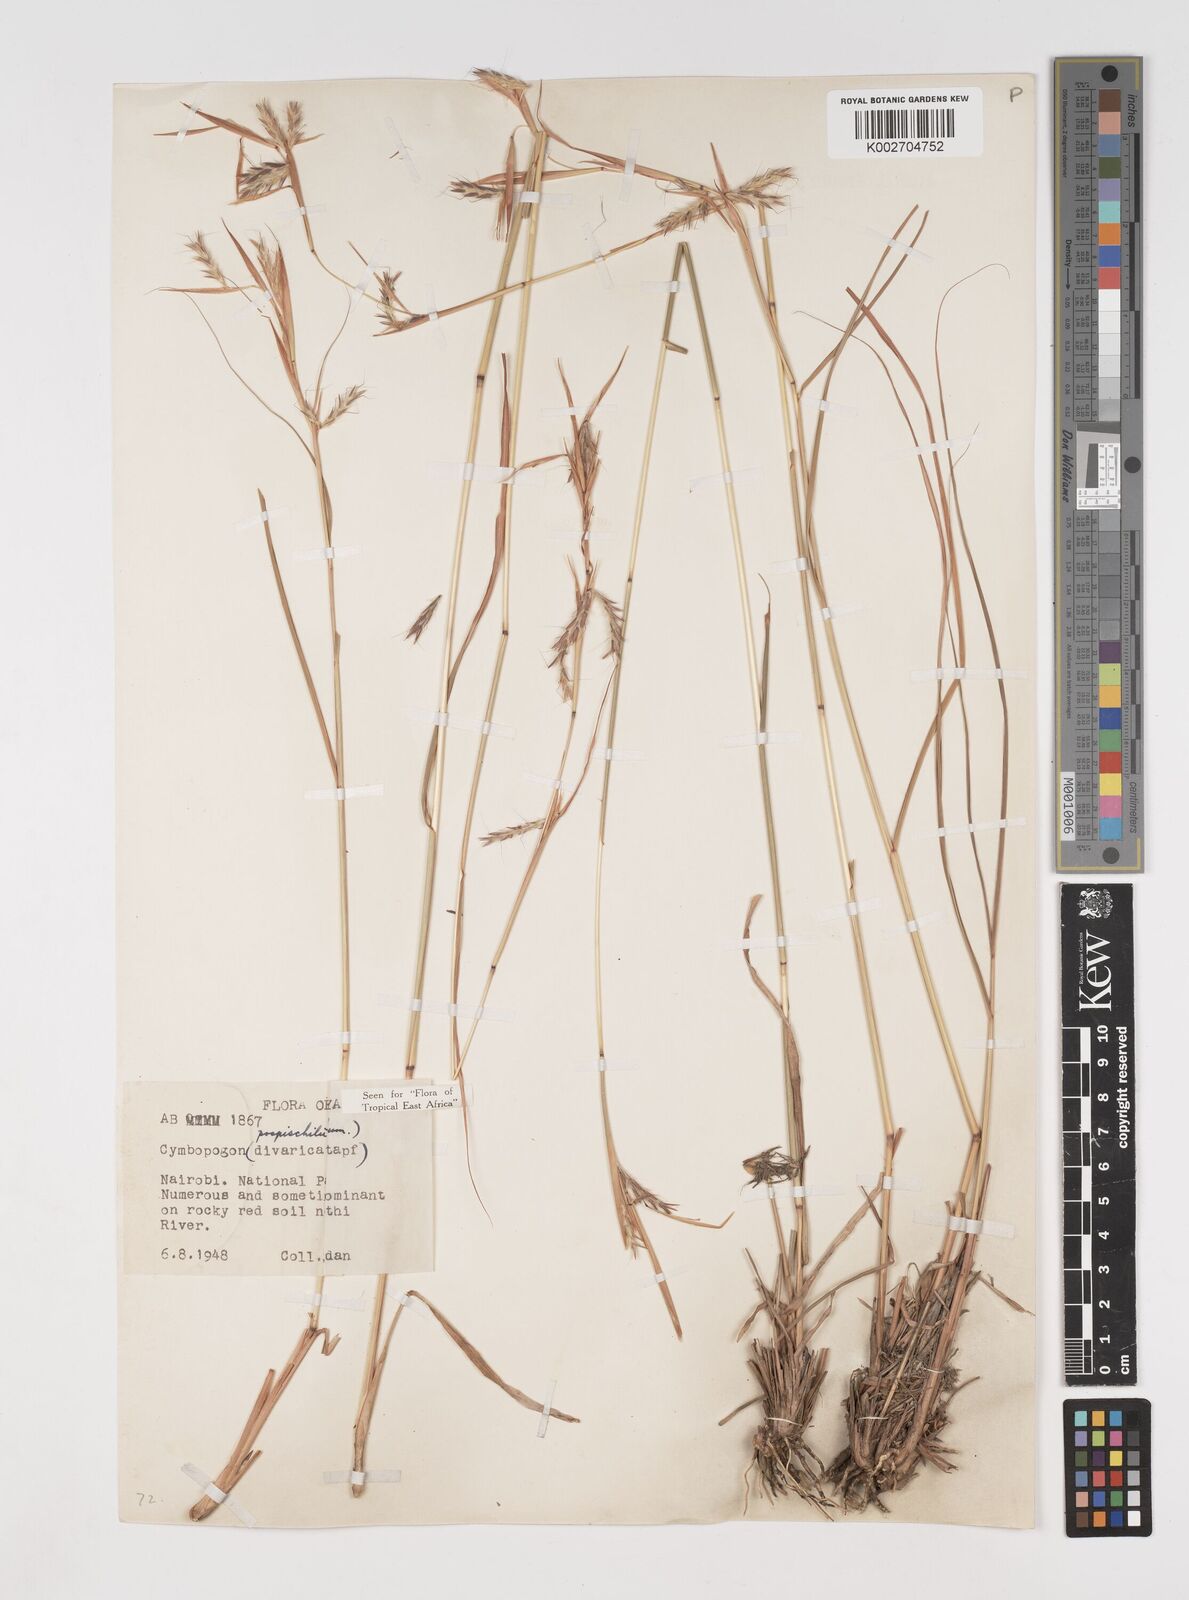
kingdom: Plantae
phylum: Tracheophyta
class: Liliopsida
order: Poales
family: Poaceae
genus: Cymbopogon
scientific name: Cymbopogon pospischilii
